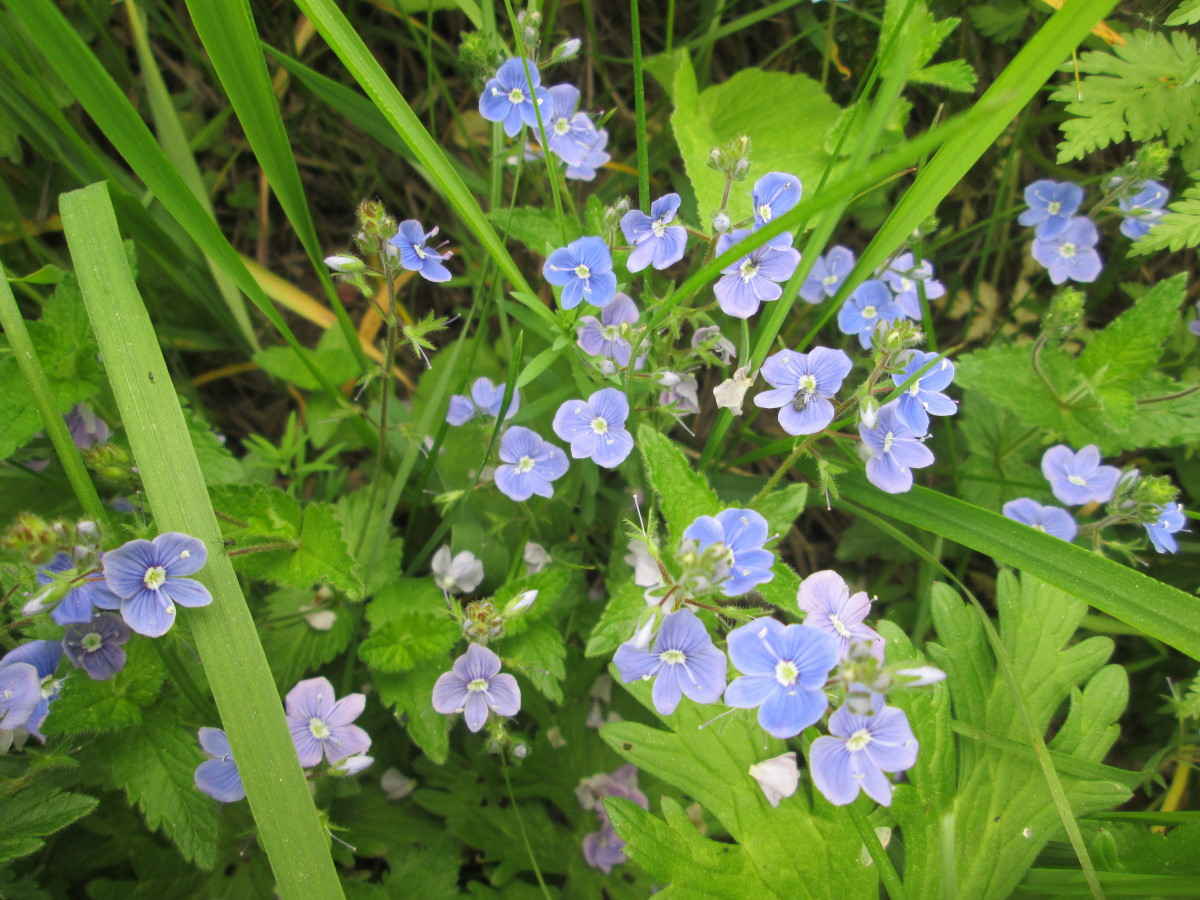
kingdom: Plantae
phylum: Tracheophyta
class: Magnoliopsida
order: Lamiales
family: Plantaginaceae
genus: Veronica
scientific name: Veronica chamaedrys
